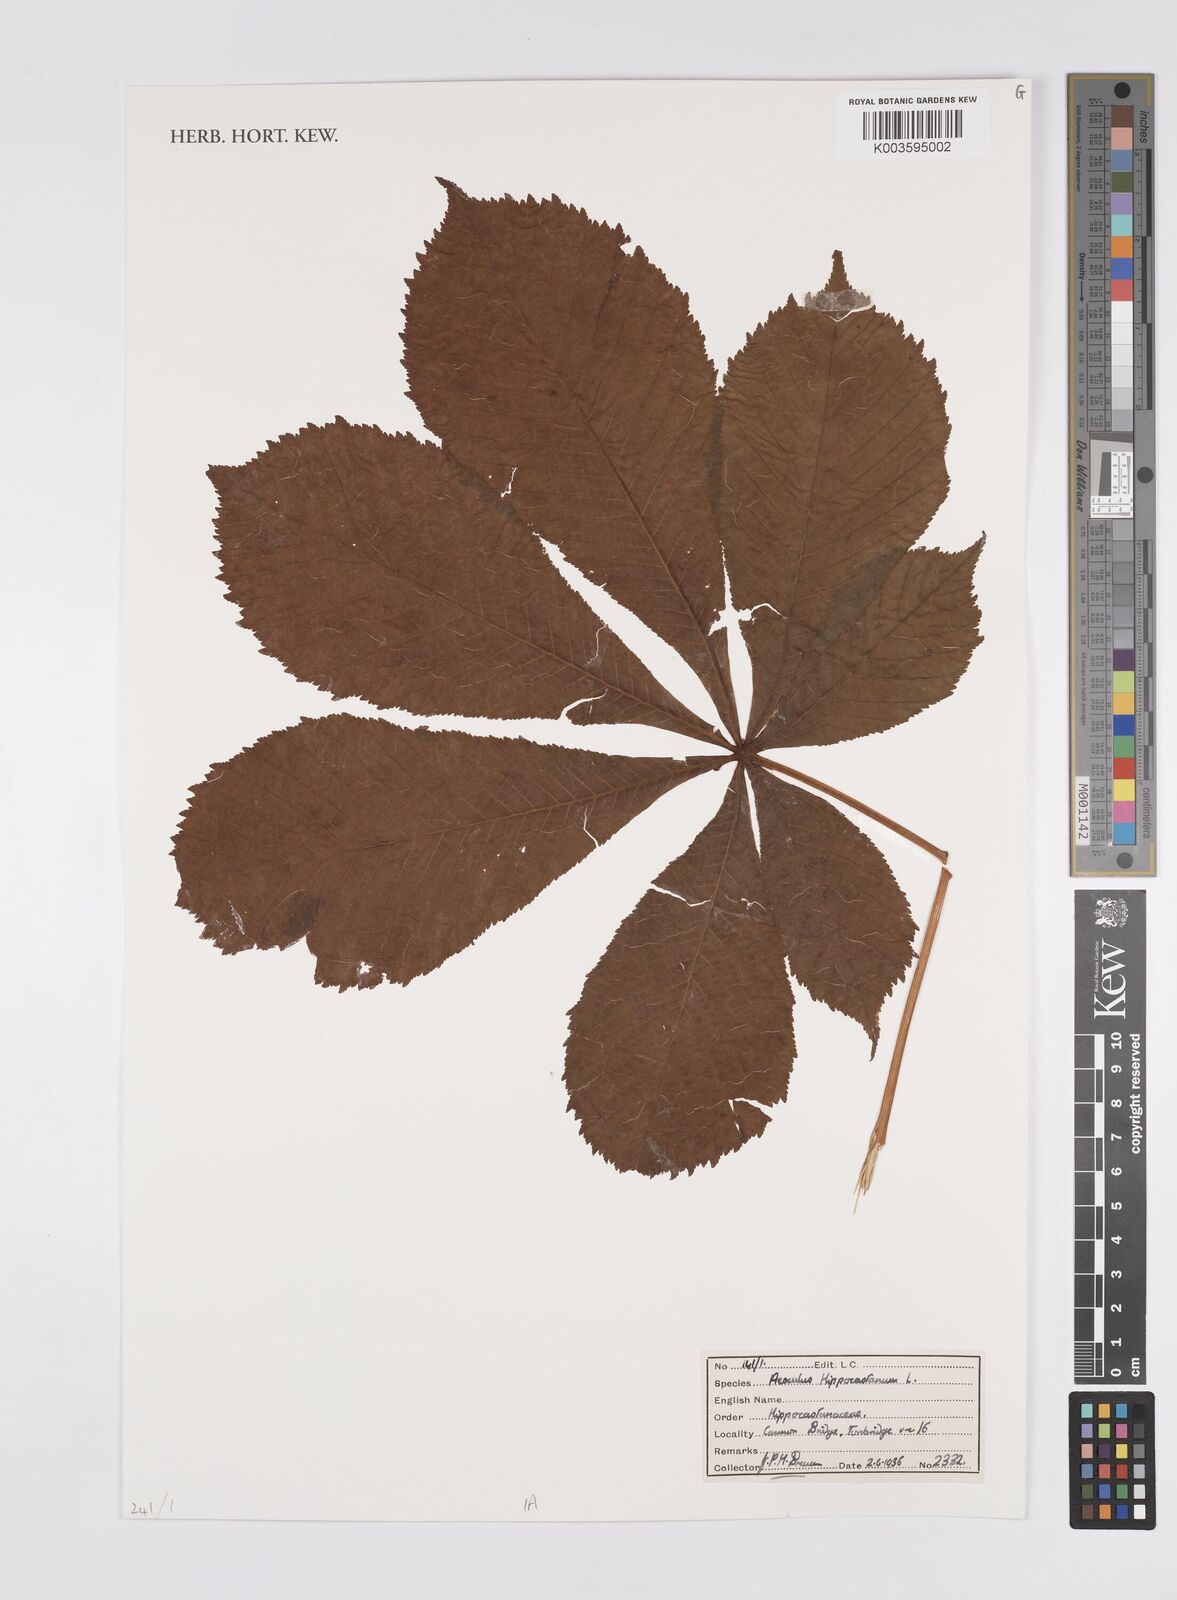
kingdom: Plantae
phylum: Tracheophyta
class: Magnoliopsida
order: Sapindales
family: Sapindaceae
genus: Aesculus
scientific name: Aesculus hippocastanum
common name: Horse-chestnut
